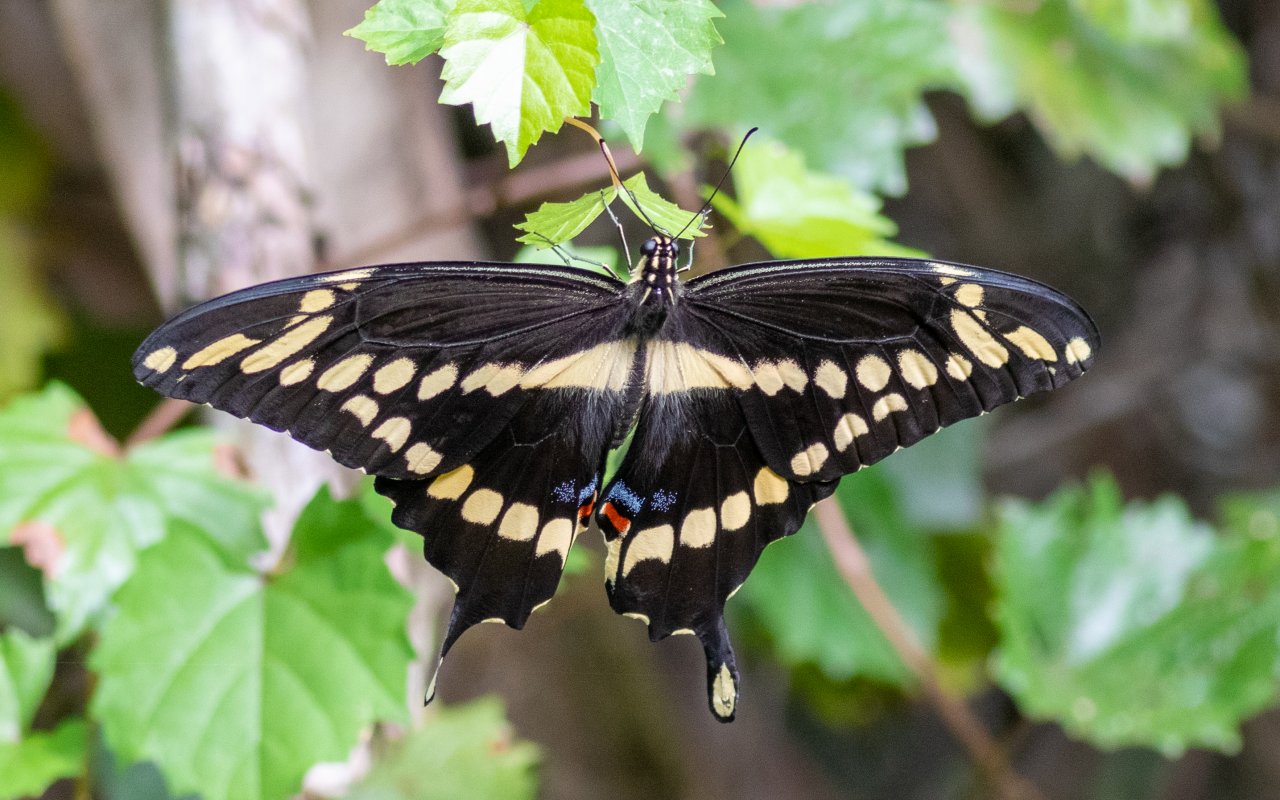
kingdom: Animalia
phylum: Arthropoda
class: Insecta
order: Lepidoptera
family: Papilionidae
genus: Papilio
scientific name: Papilio cresphontes
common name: Eastern Giant Swallowtail
